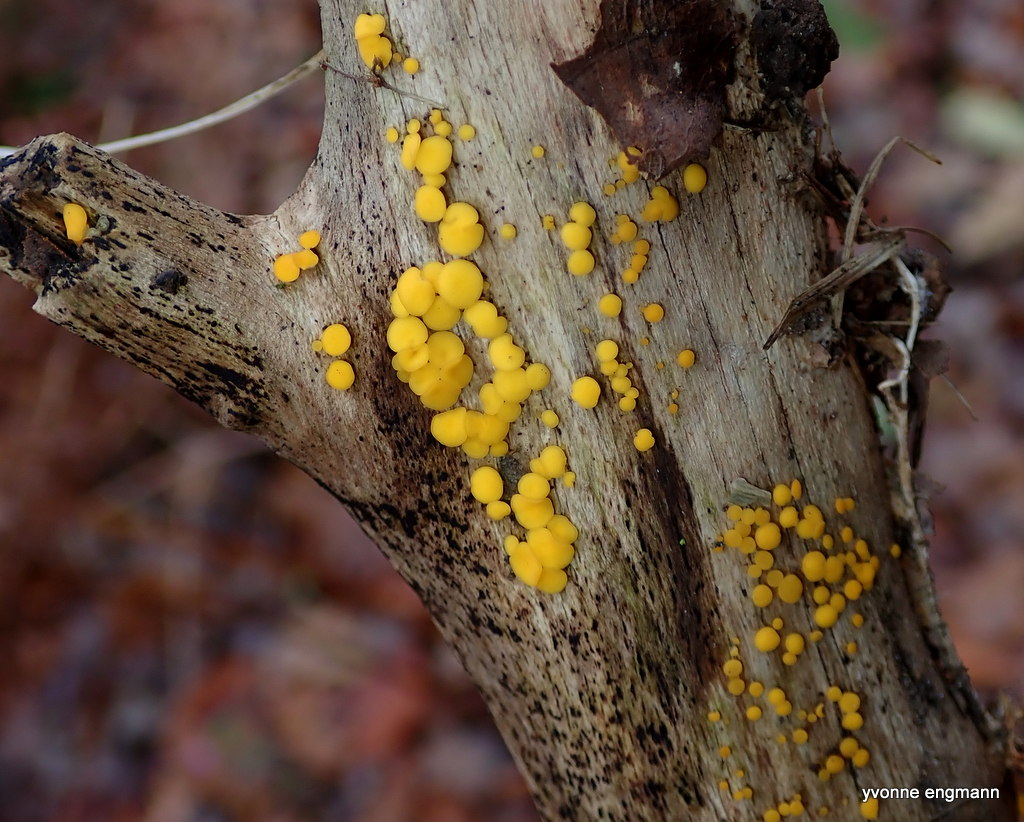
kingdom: Fungi
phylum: Ascomycota
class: Leotiomycetes
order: Helotiales
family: Pezizellaceae
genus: Calycina
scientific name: Calycina citrina
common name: almindelig gulskive
